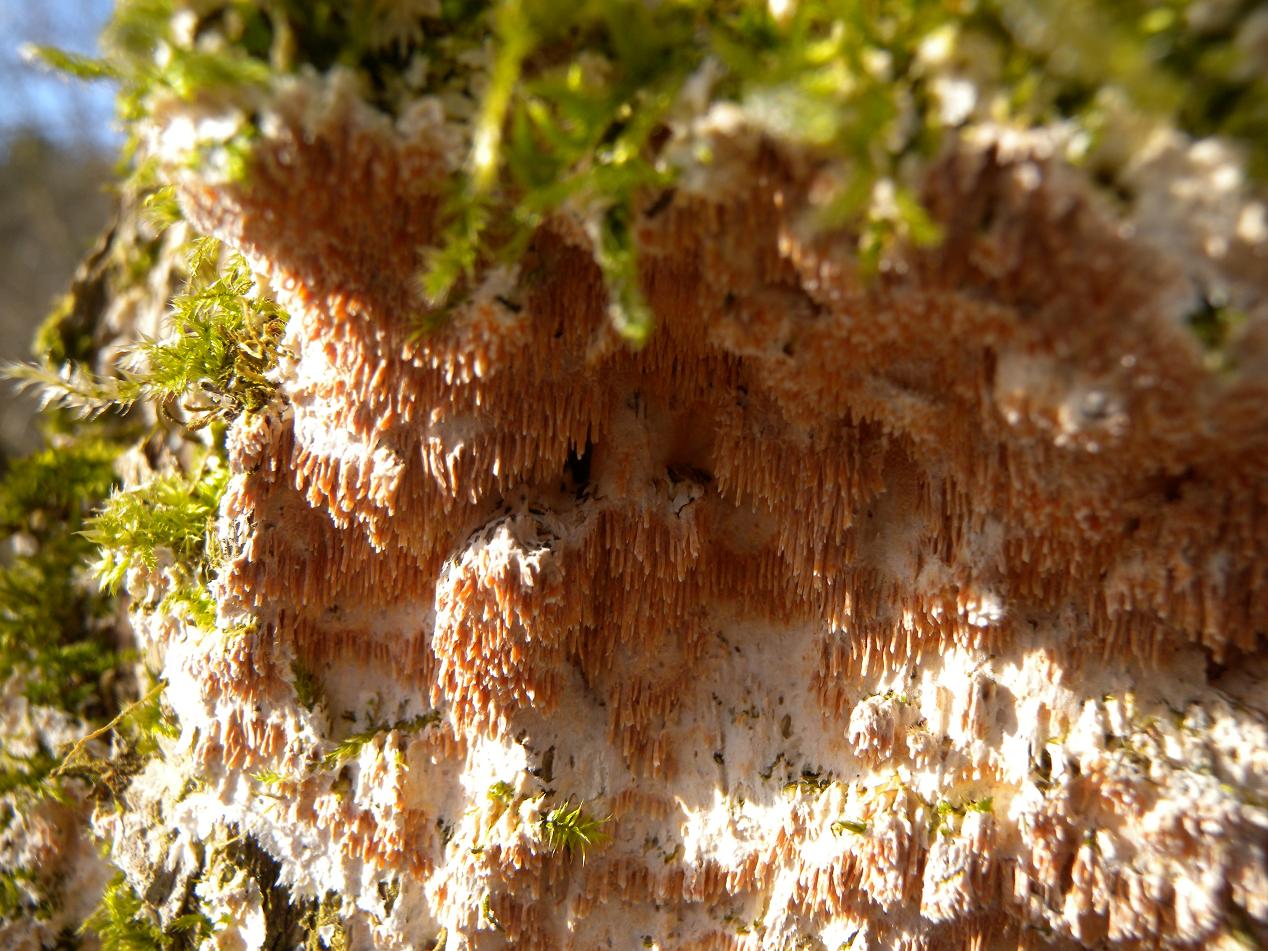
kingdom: Fungi
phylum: Basidiomycota
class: Agaricomycetes
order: Polyporales
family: Steccherinaceae
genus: Steccherinum
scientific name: Steccherinum robustius
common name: stor skønpig
